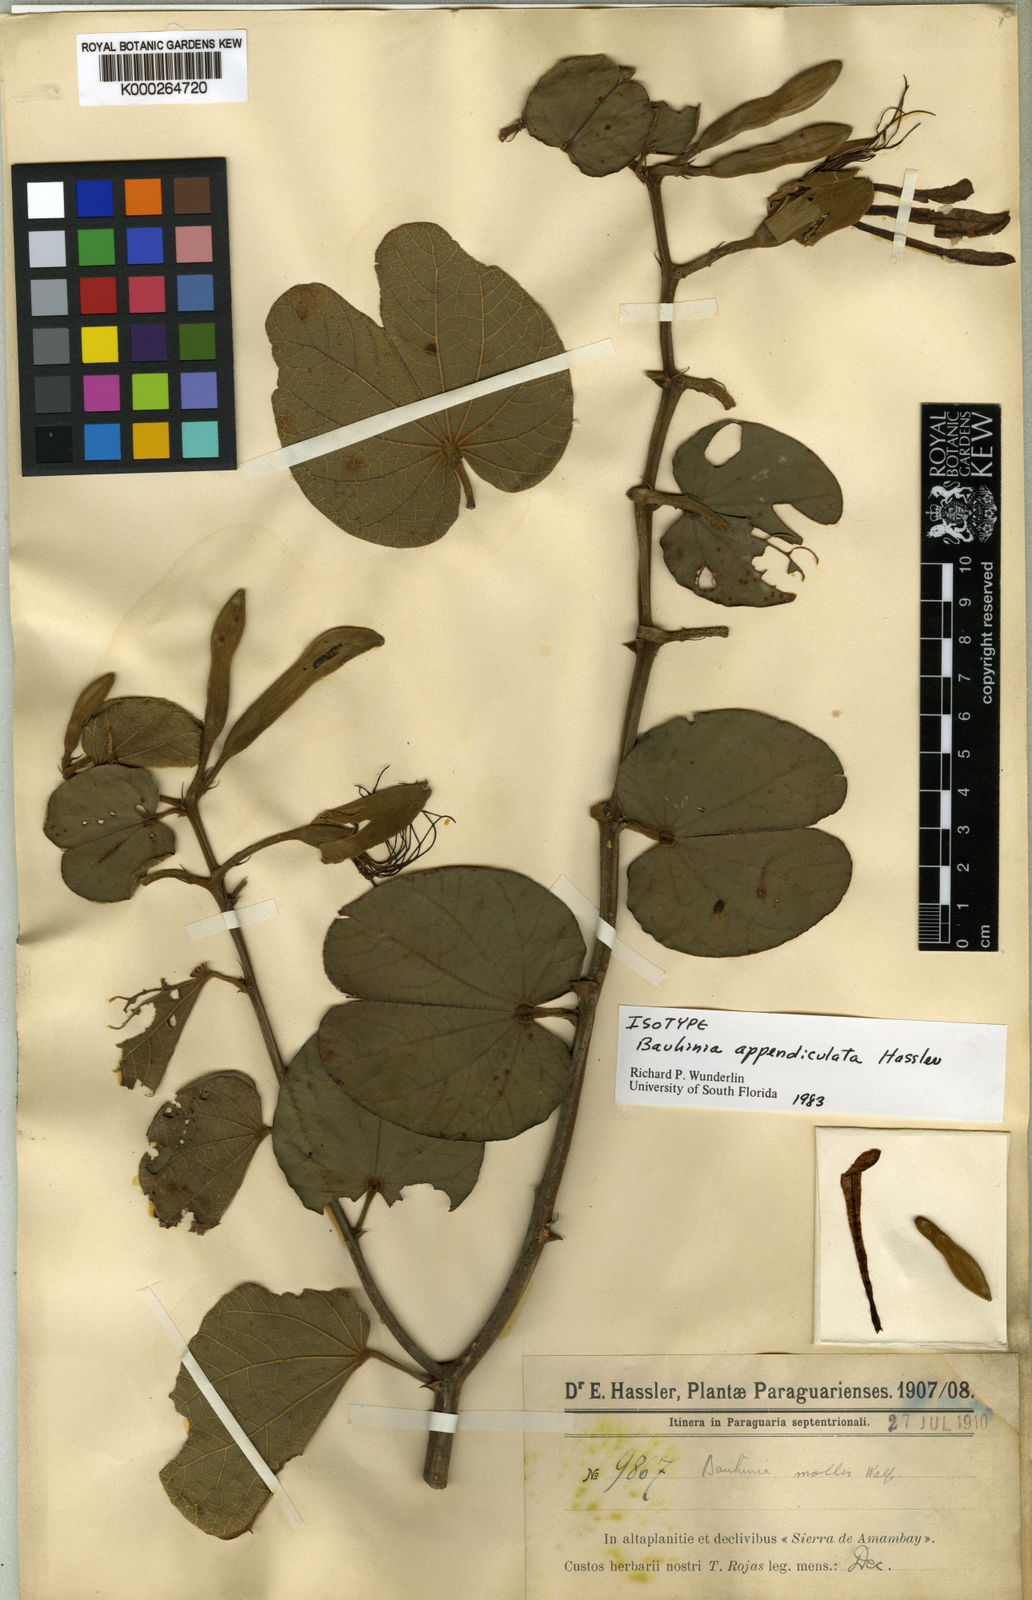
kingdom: Plantae
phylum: Tracheophyta
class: Magnoliopsida
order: Fabales
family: Fabaceae
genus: Bauhinia
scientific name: Bauhinia mollis
